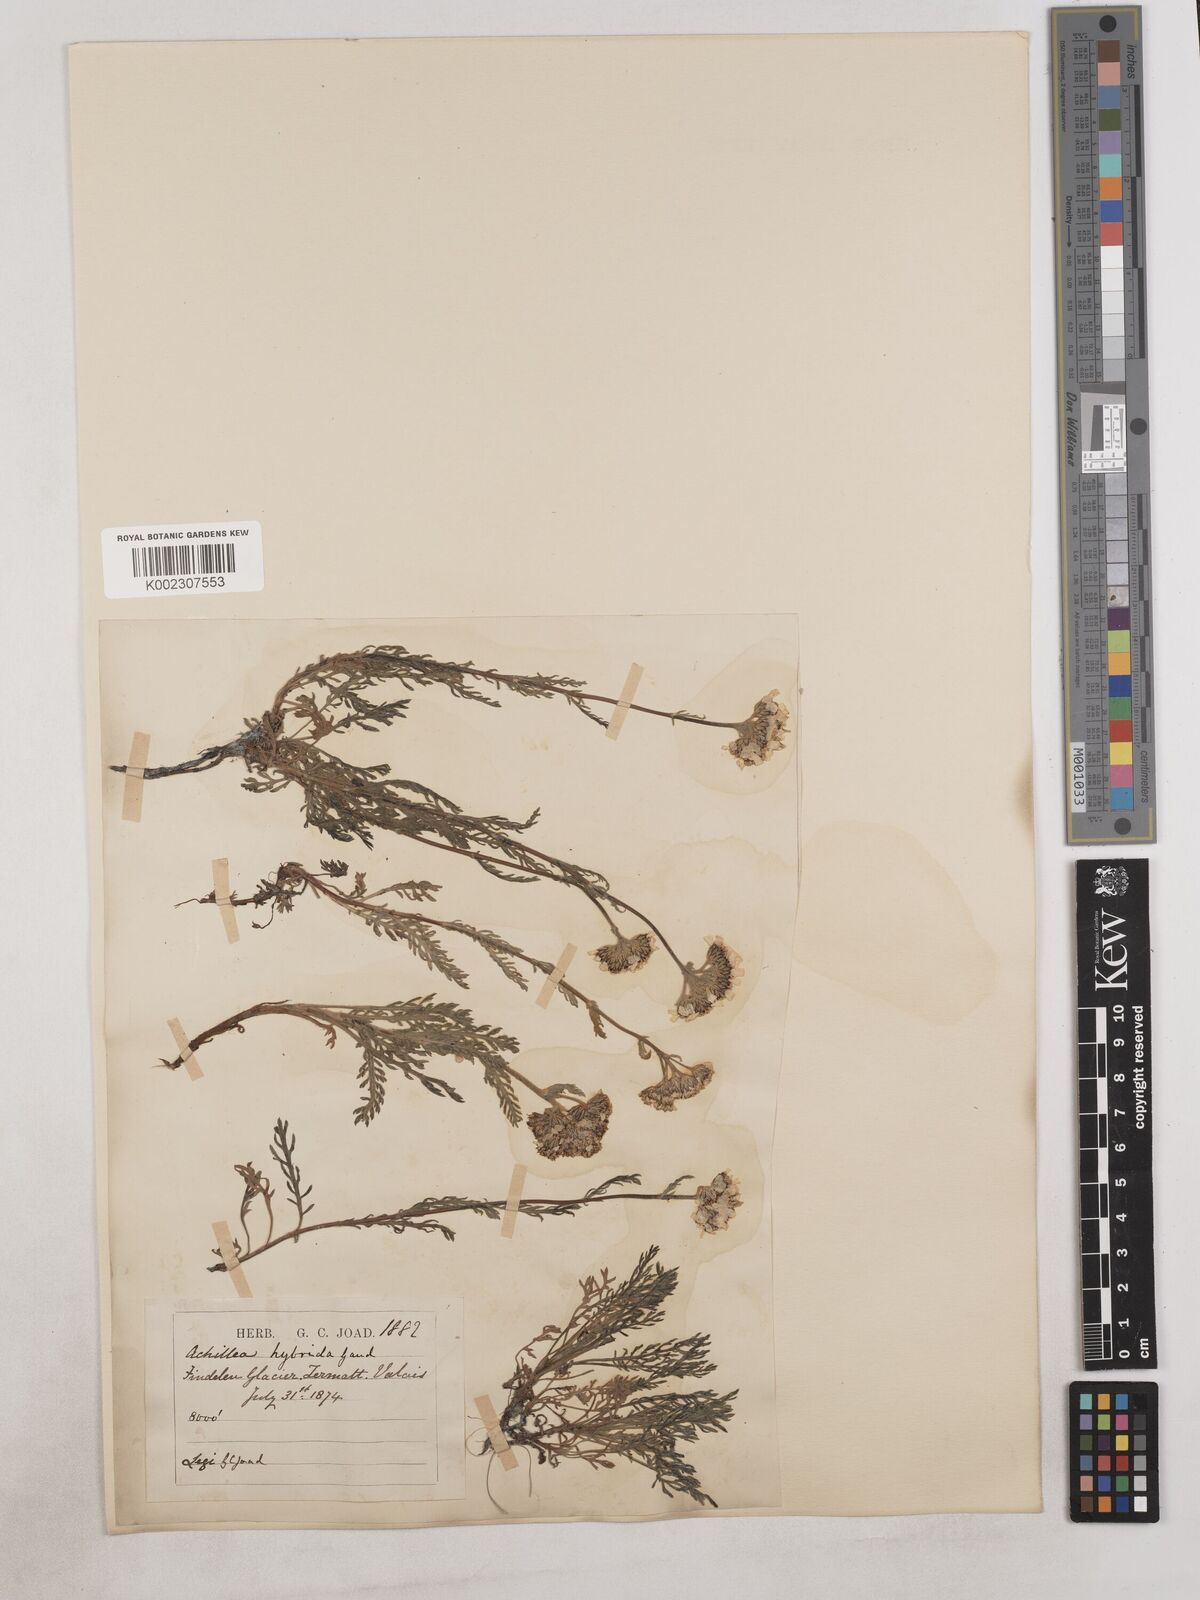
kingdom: Plantae
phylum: Tracheophyta
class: Magnoliopsida
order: Asterales
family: Asteraceae
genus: Achillea
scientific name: Achillea erba-rotta
